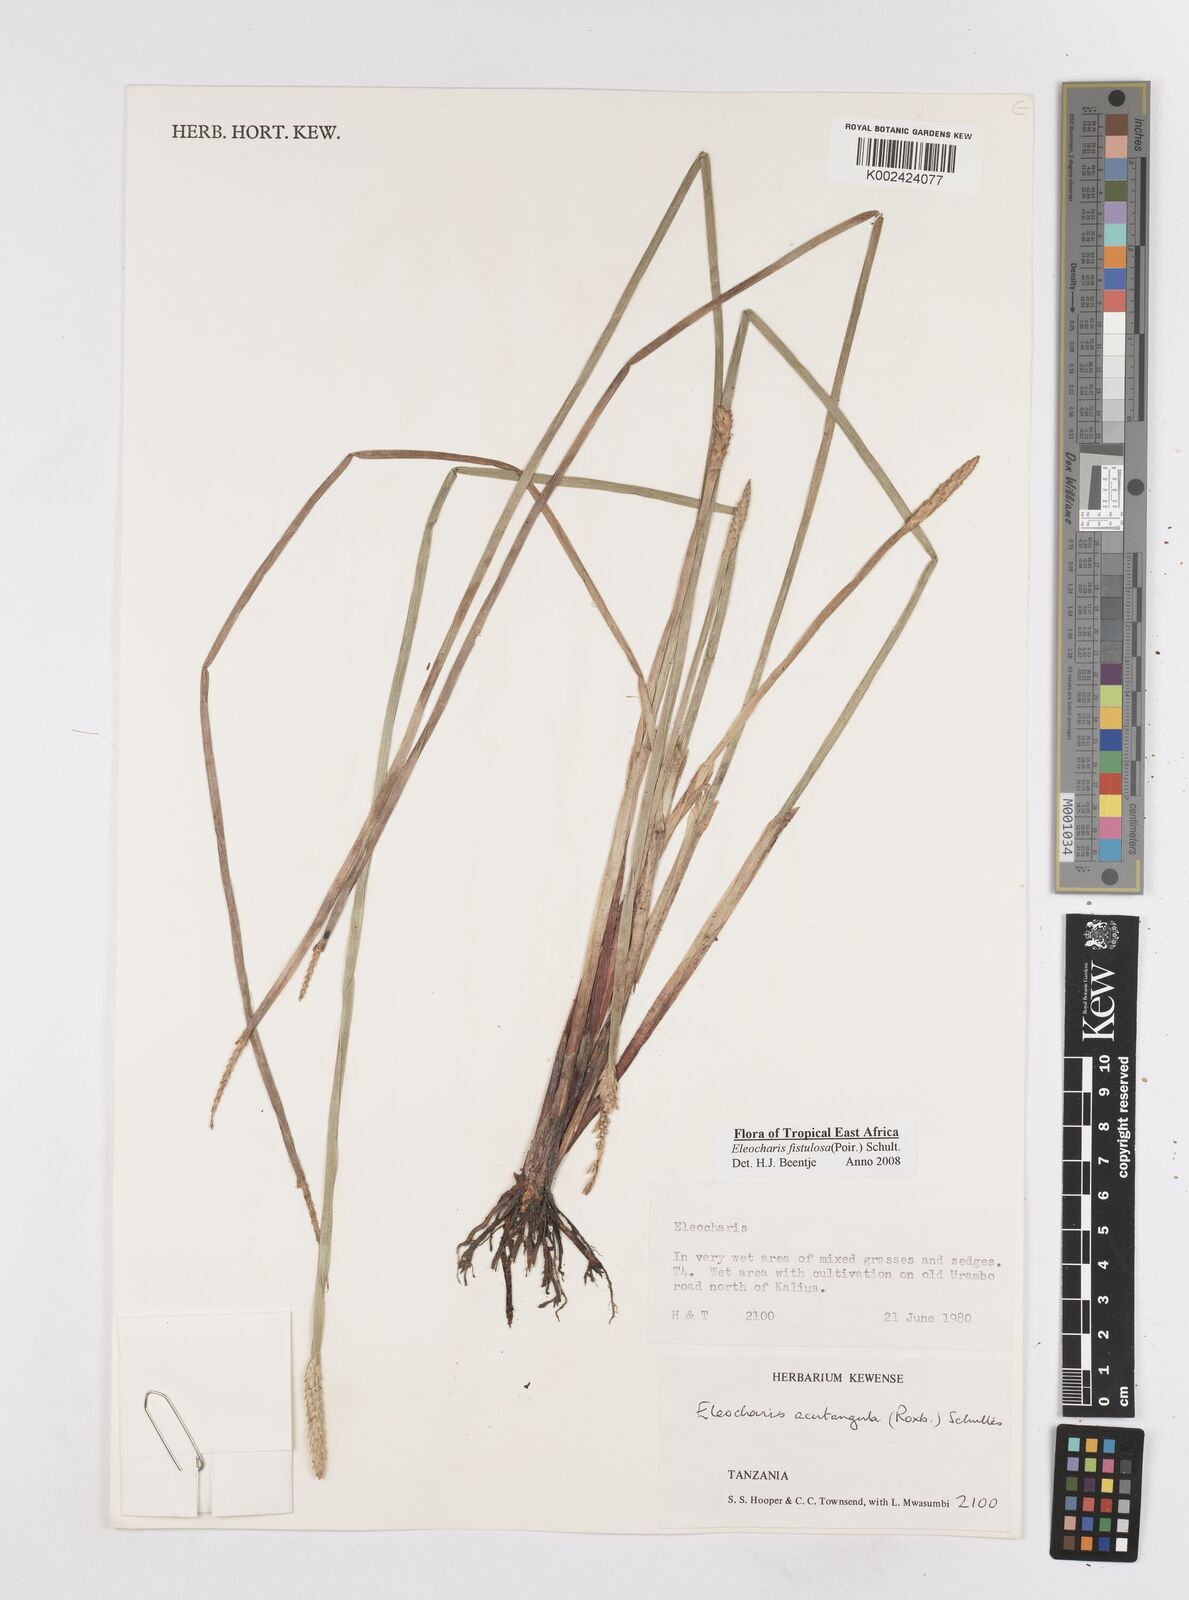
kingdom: Plantae
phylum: Tracheophyta
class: Liliopsida
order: Poales
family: Cyperaceae
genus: Eleocharis
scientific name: Eleocharis acutangula
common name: Acute spikerush
